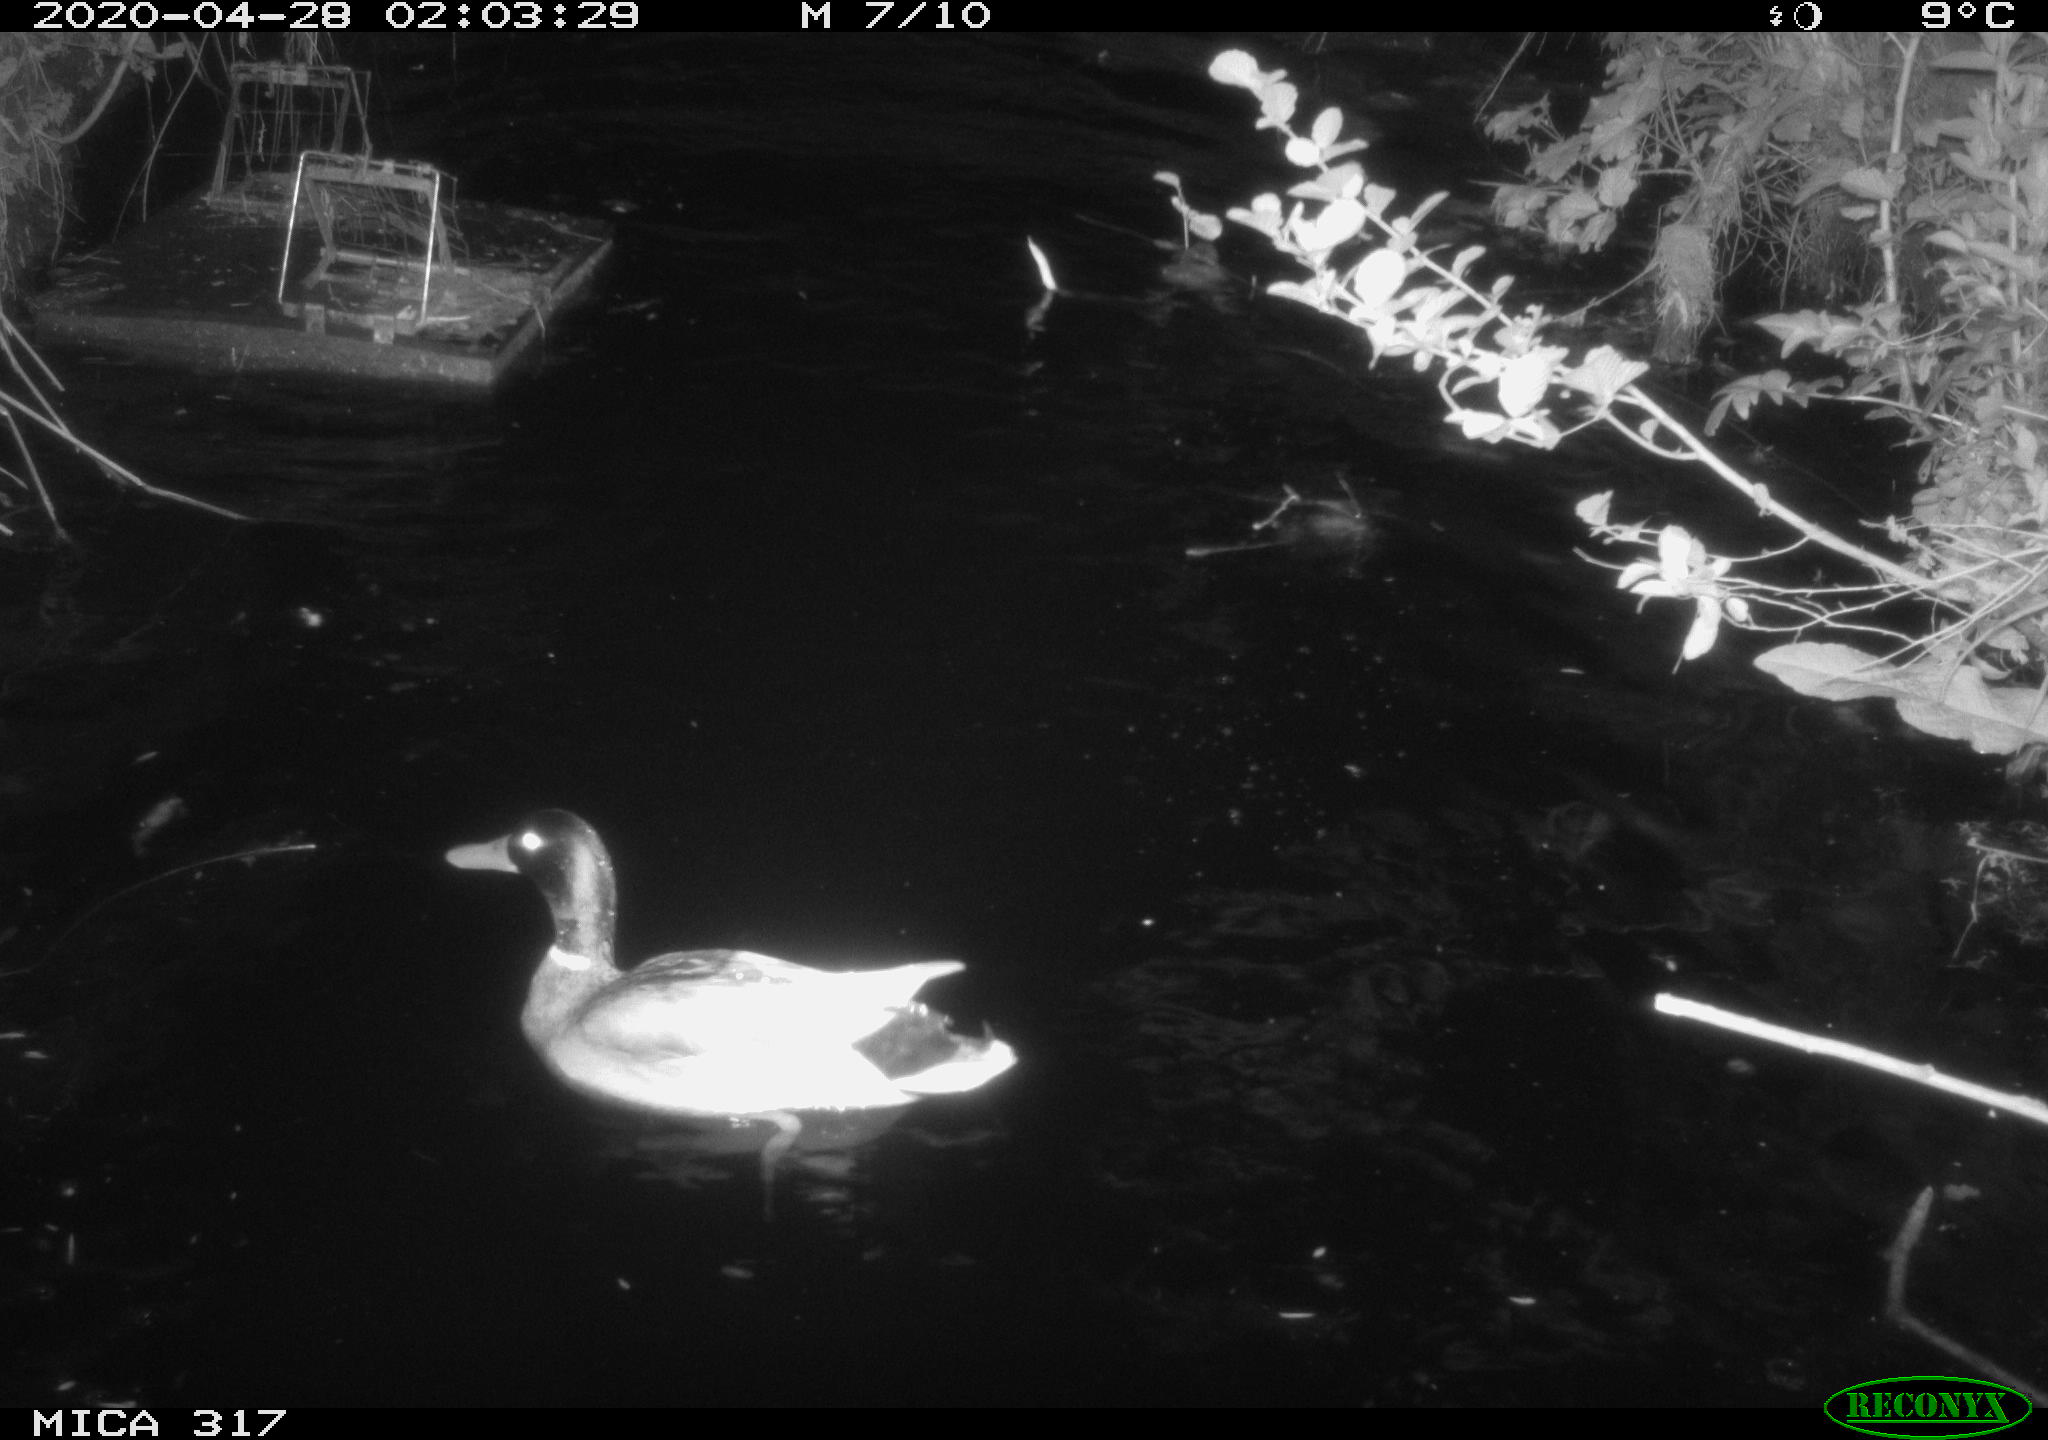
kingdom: Animalia
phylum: Chordata
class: Aves
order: Anseriformes
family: Anatidae
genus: Anas
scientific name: Anas platyrhynchos
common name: Mallard
